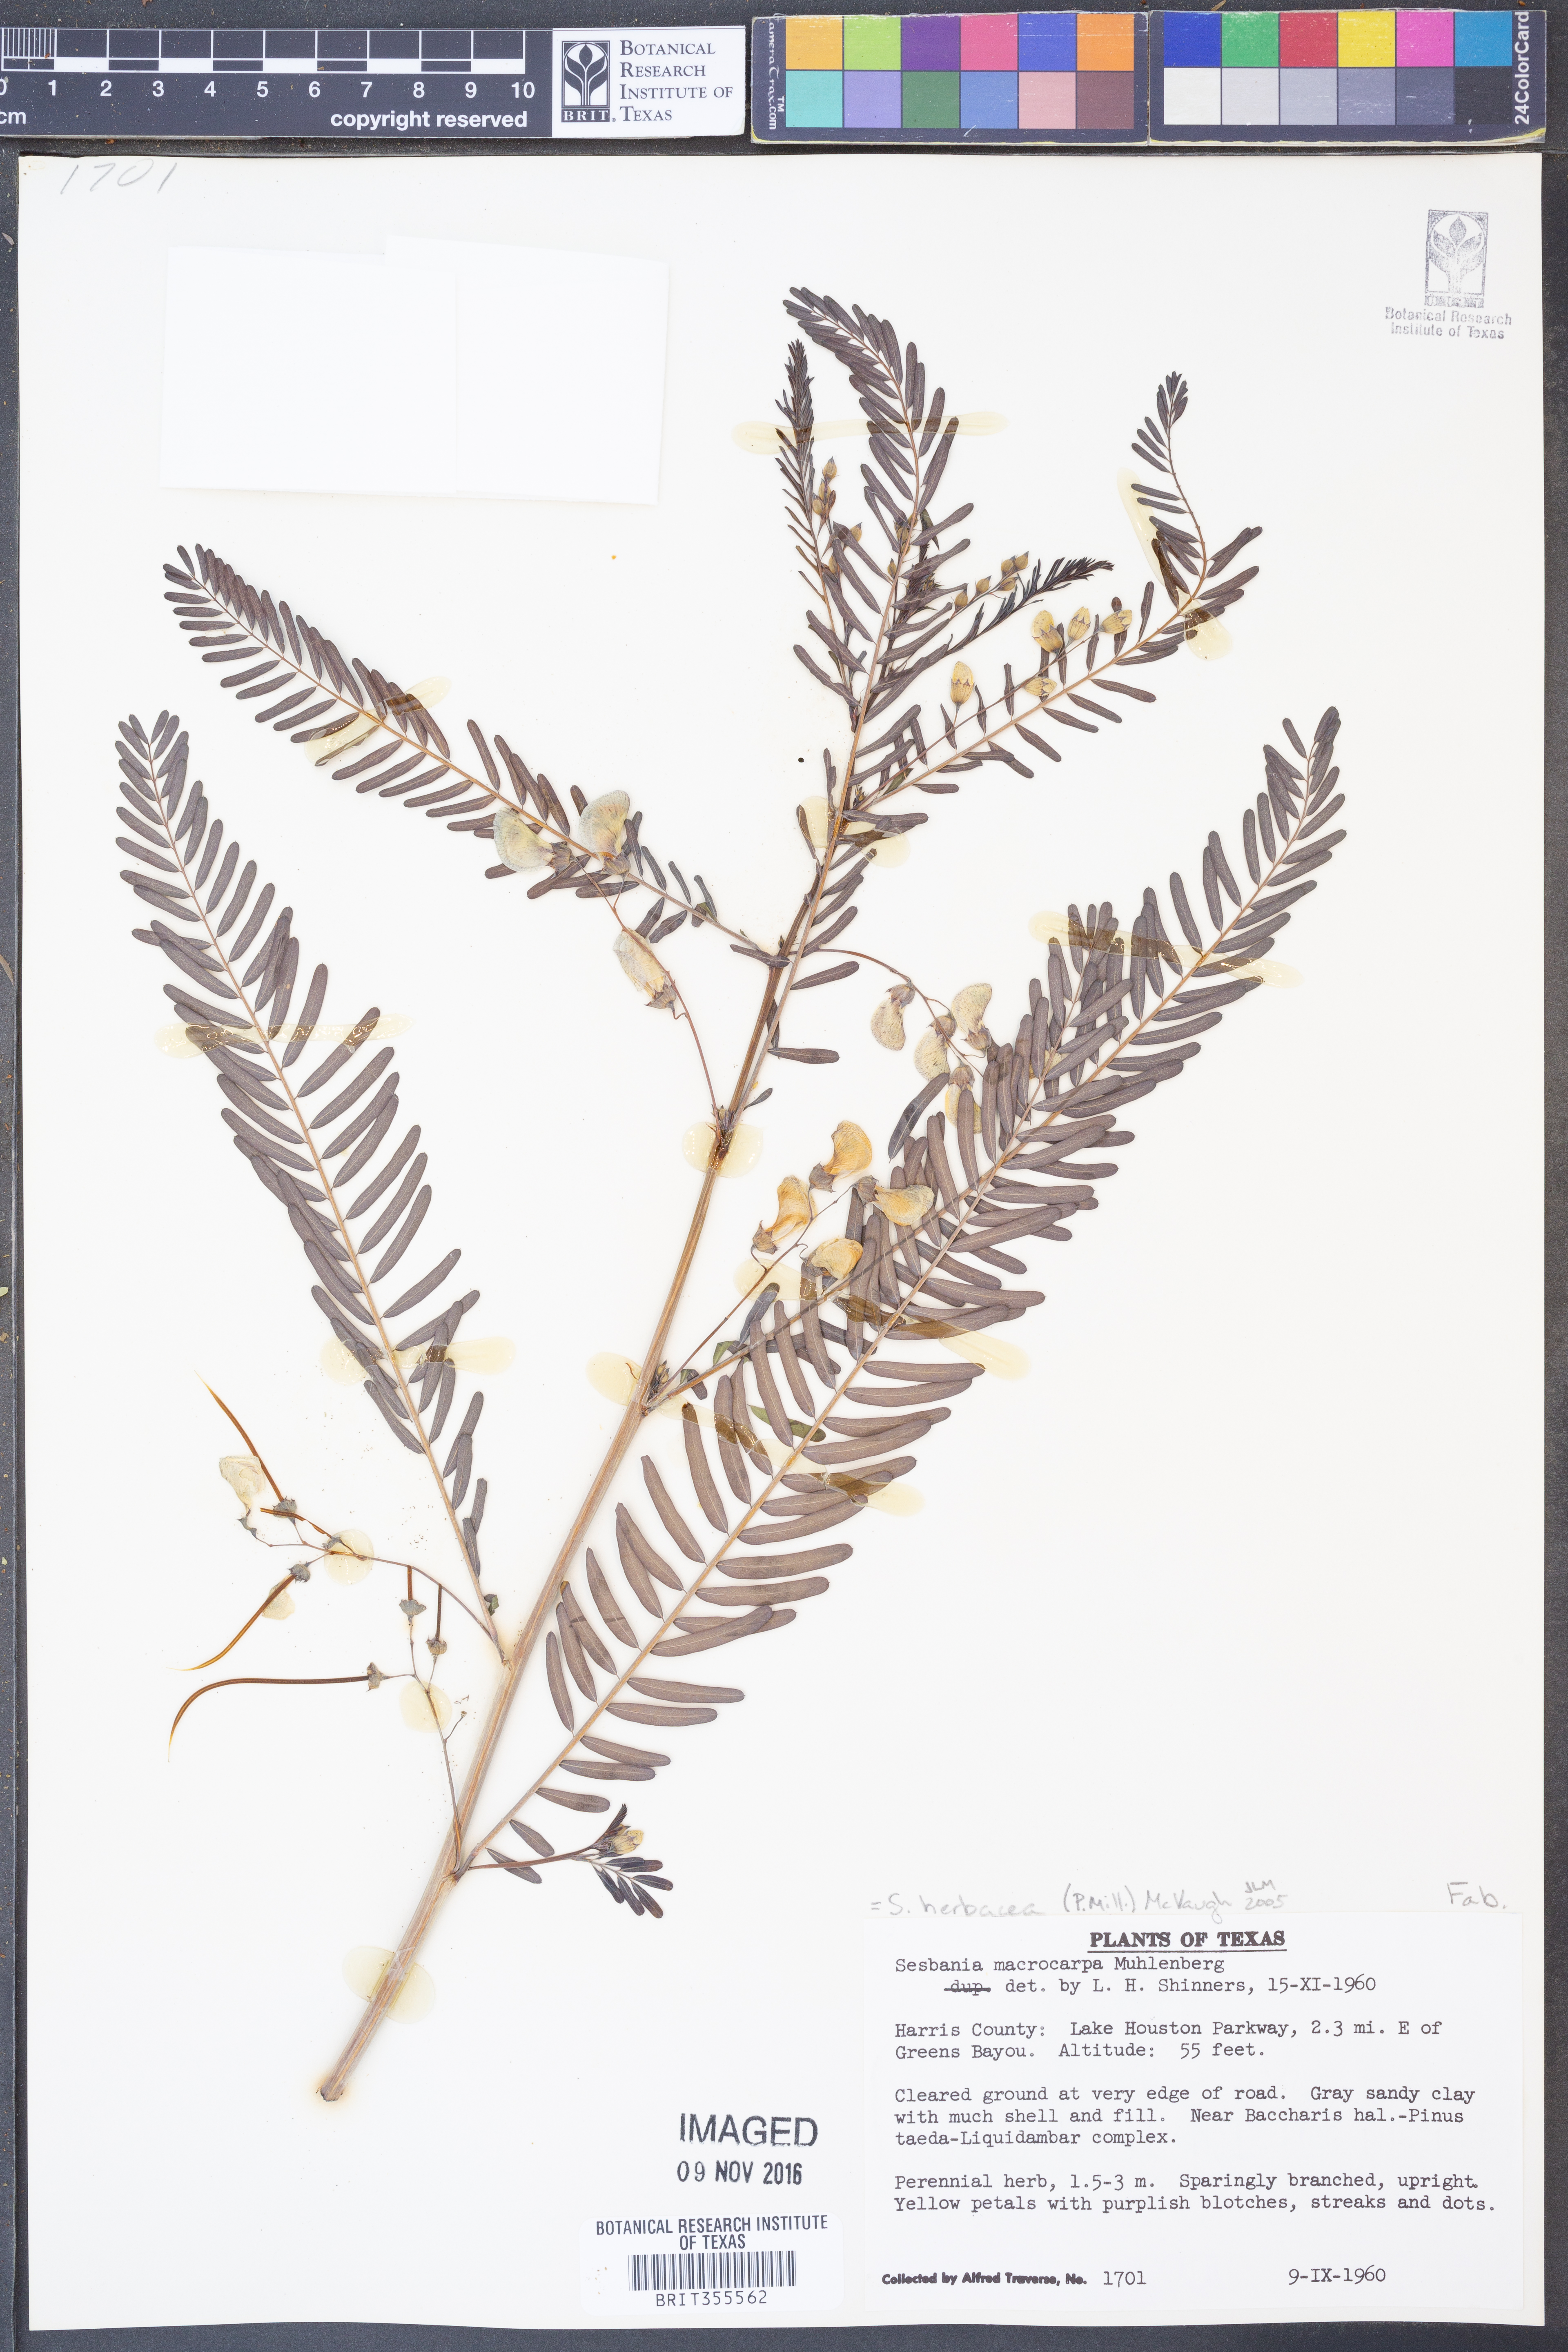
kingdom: Plantae
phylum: Tracheophyta
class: Magnoliopsida
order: Fabales
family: Fabaceae
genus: Sesbania
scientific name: Sesbania herbacea
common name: Bigpod sesbania
